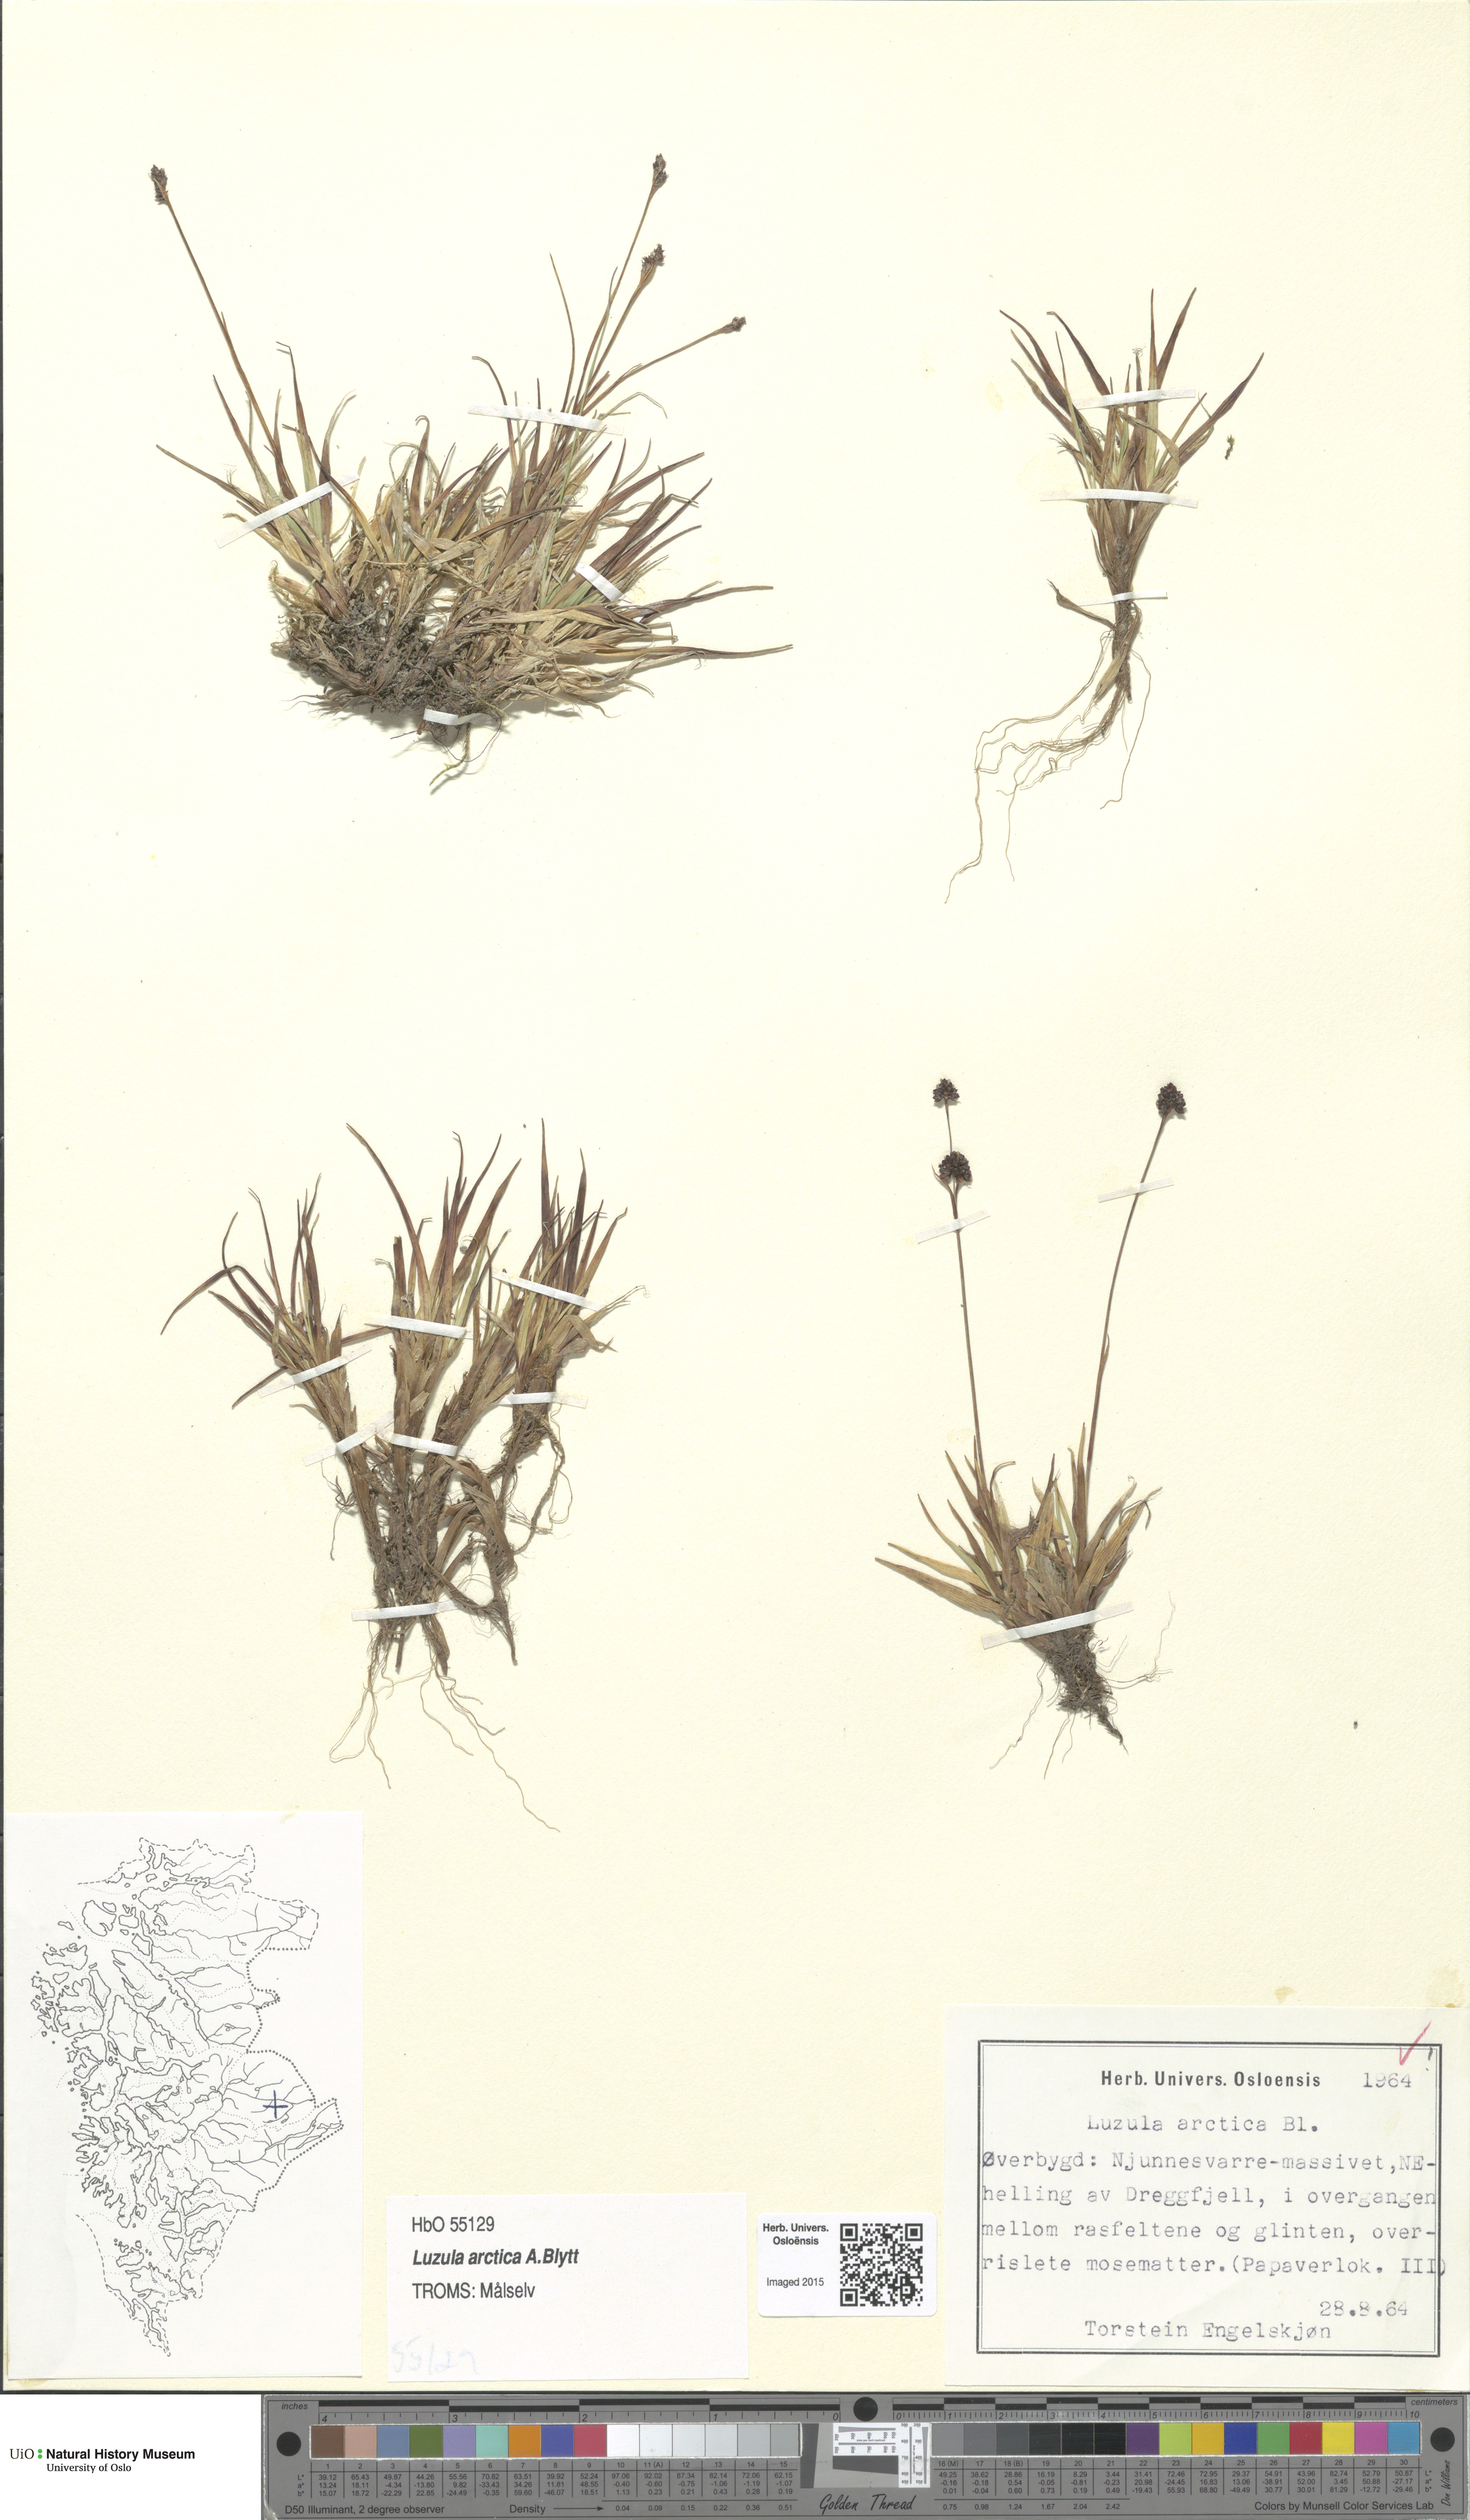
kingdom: Plantae
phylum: Tracheophyta
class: Liliopsida
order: Poales
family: Juncaceae
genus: Luzula
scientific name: Luzula nivalis
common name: Arctic woodrush
